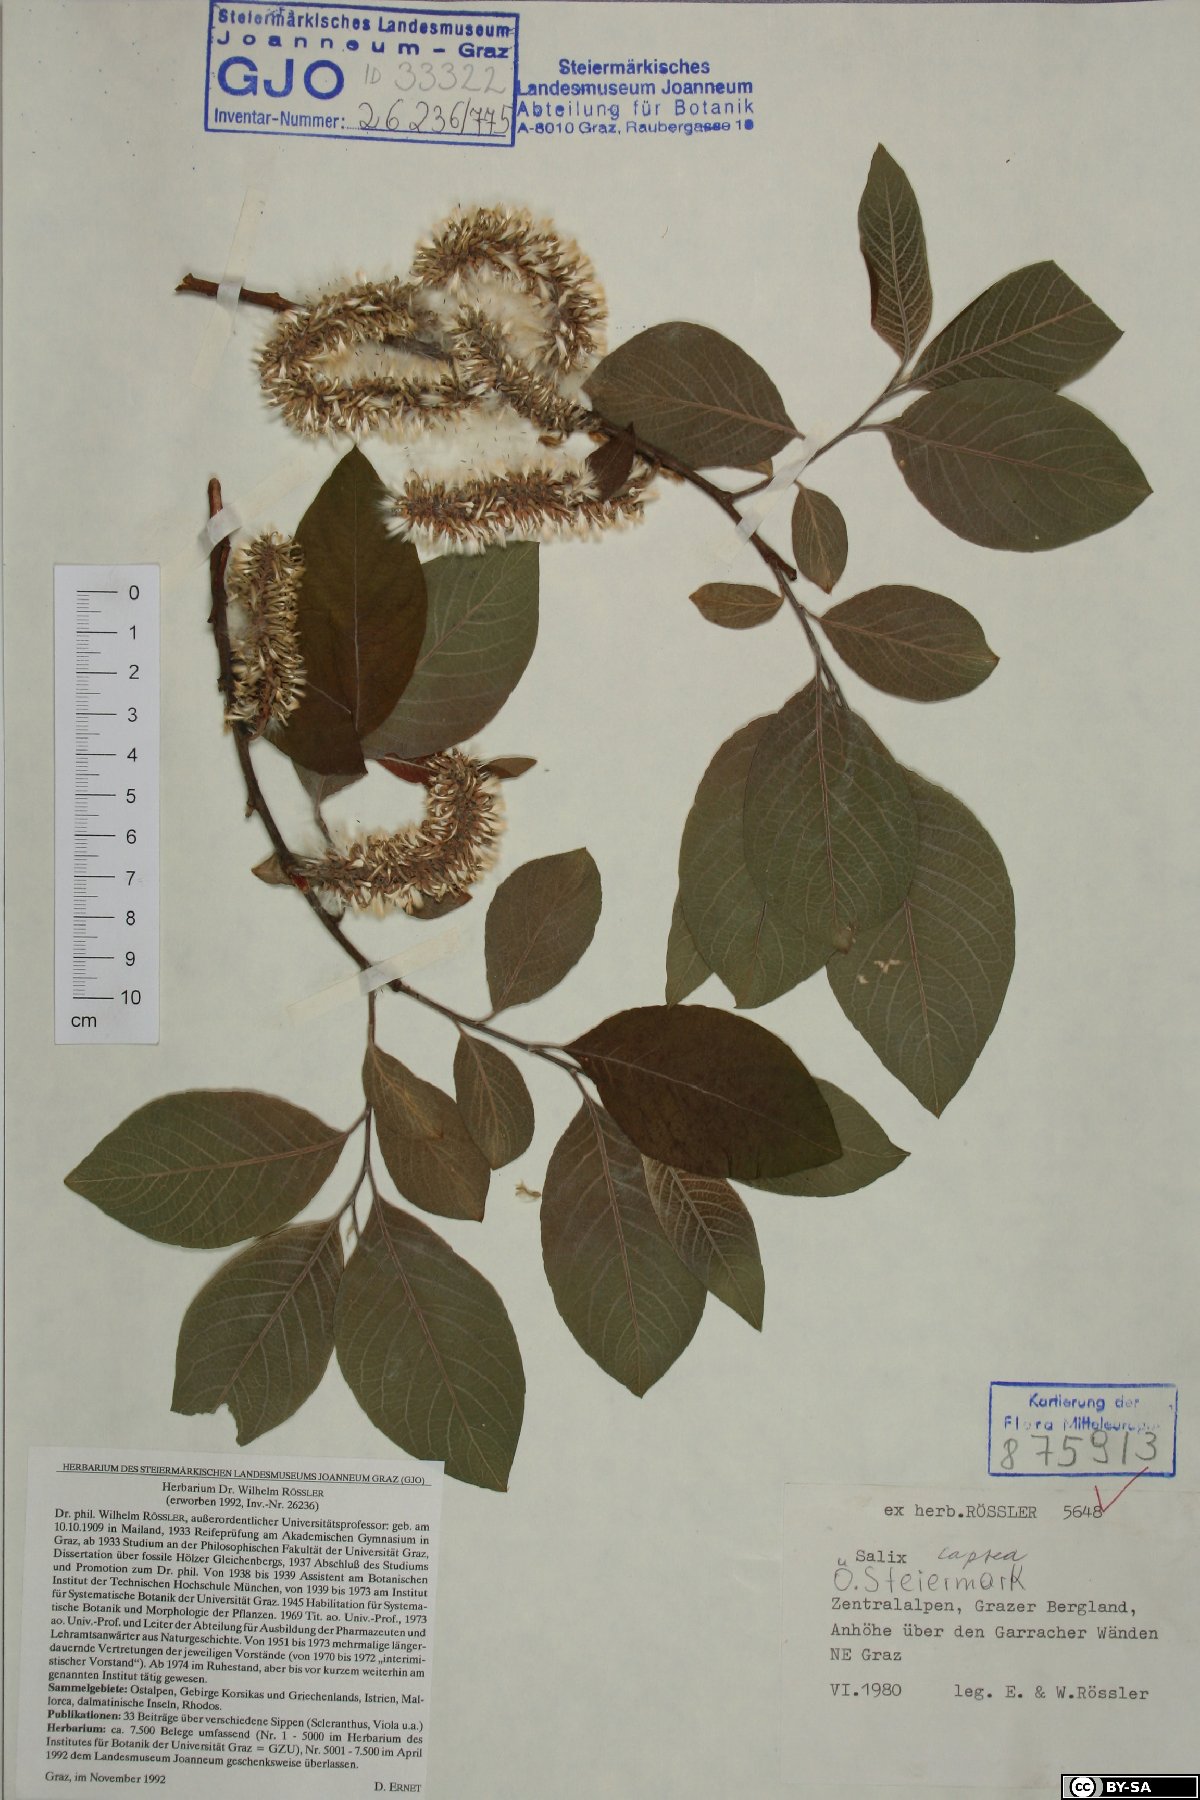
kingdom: Plantae
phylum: Tracheophyta
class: Magnoliopsida
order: Malpighiales
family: Salicaceae
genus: Salix
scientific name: Salix caprea
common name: Goat willow
